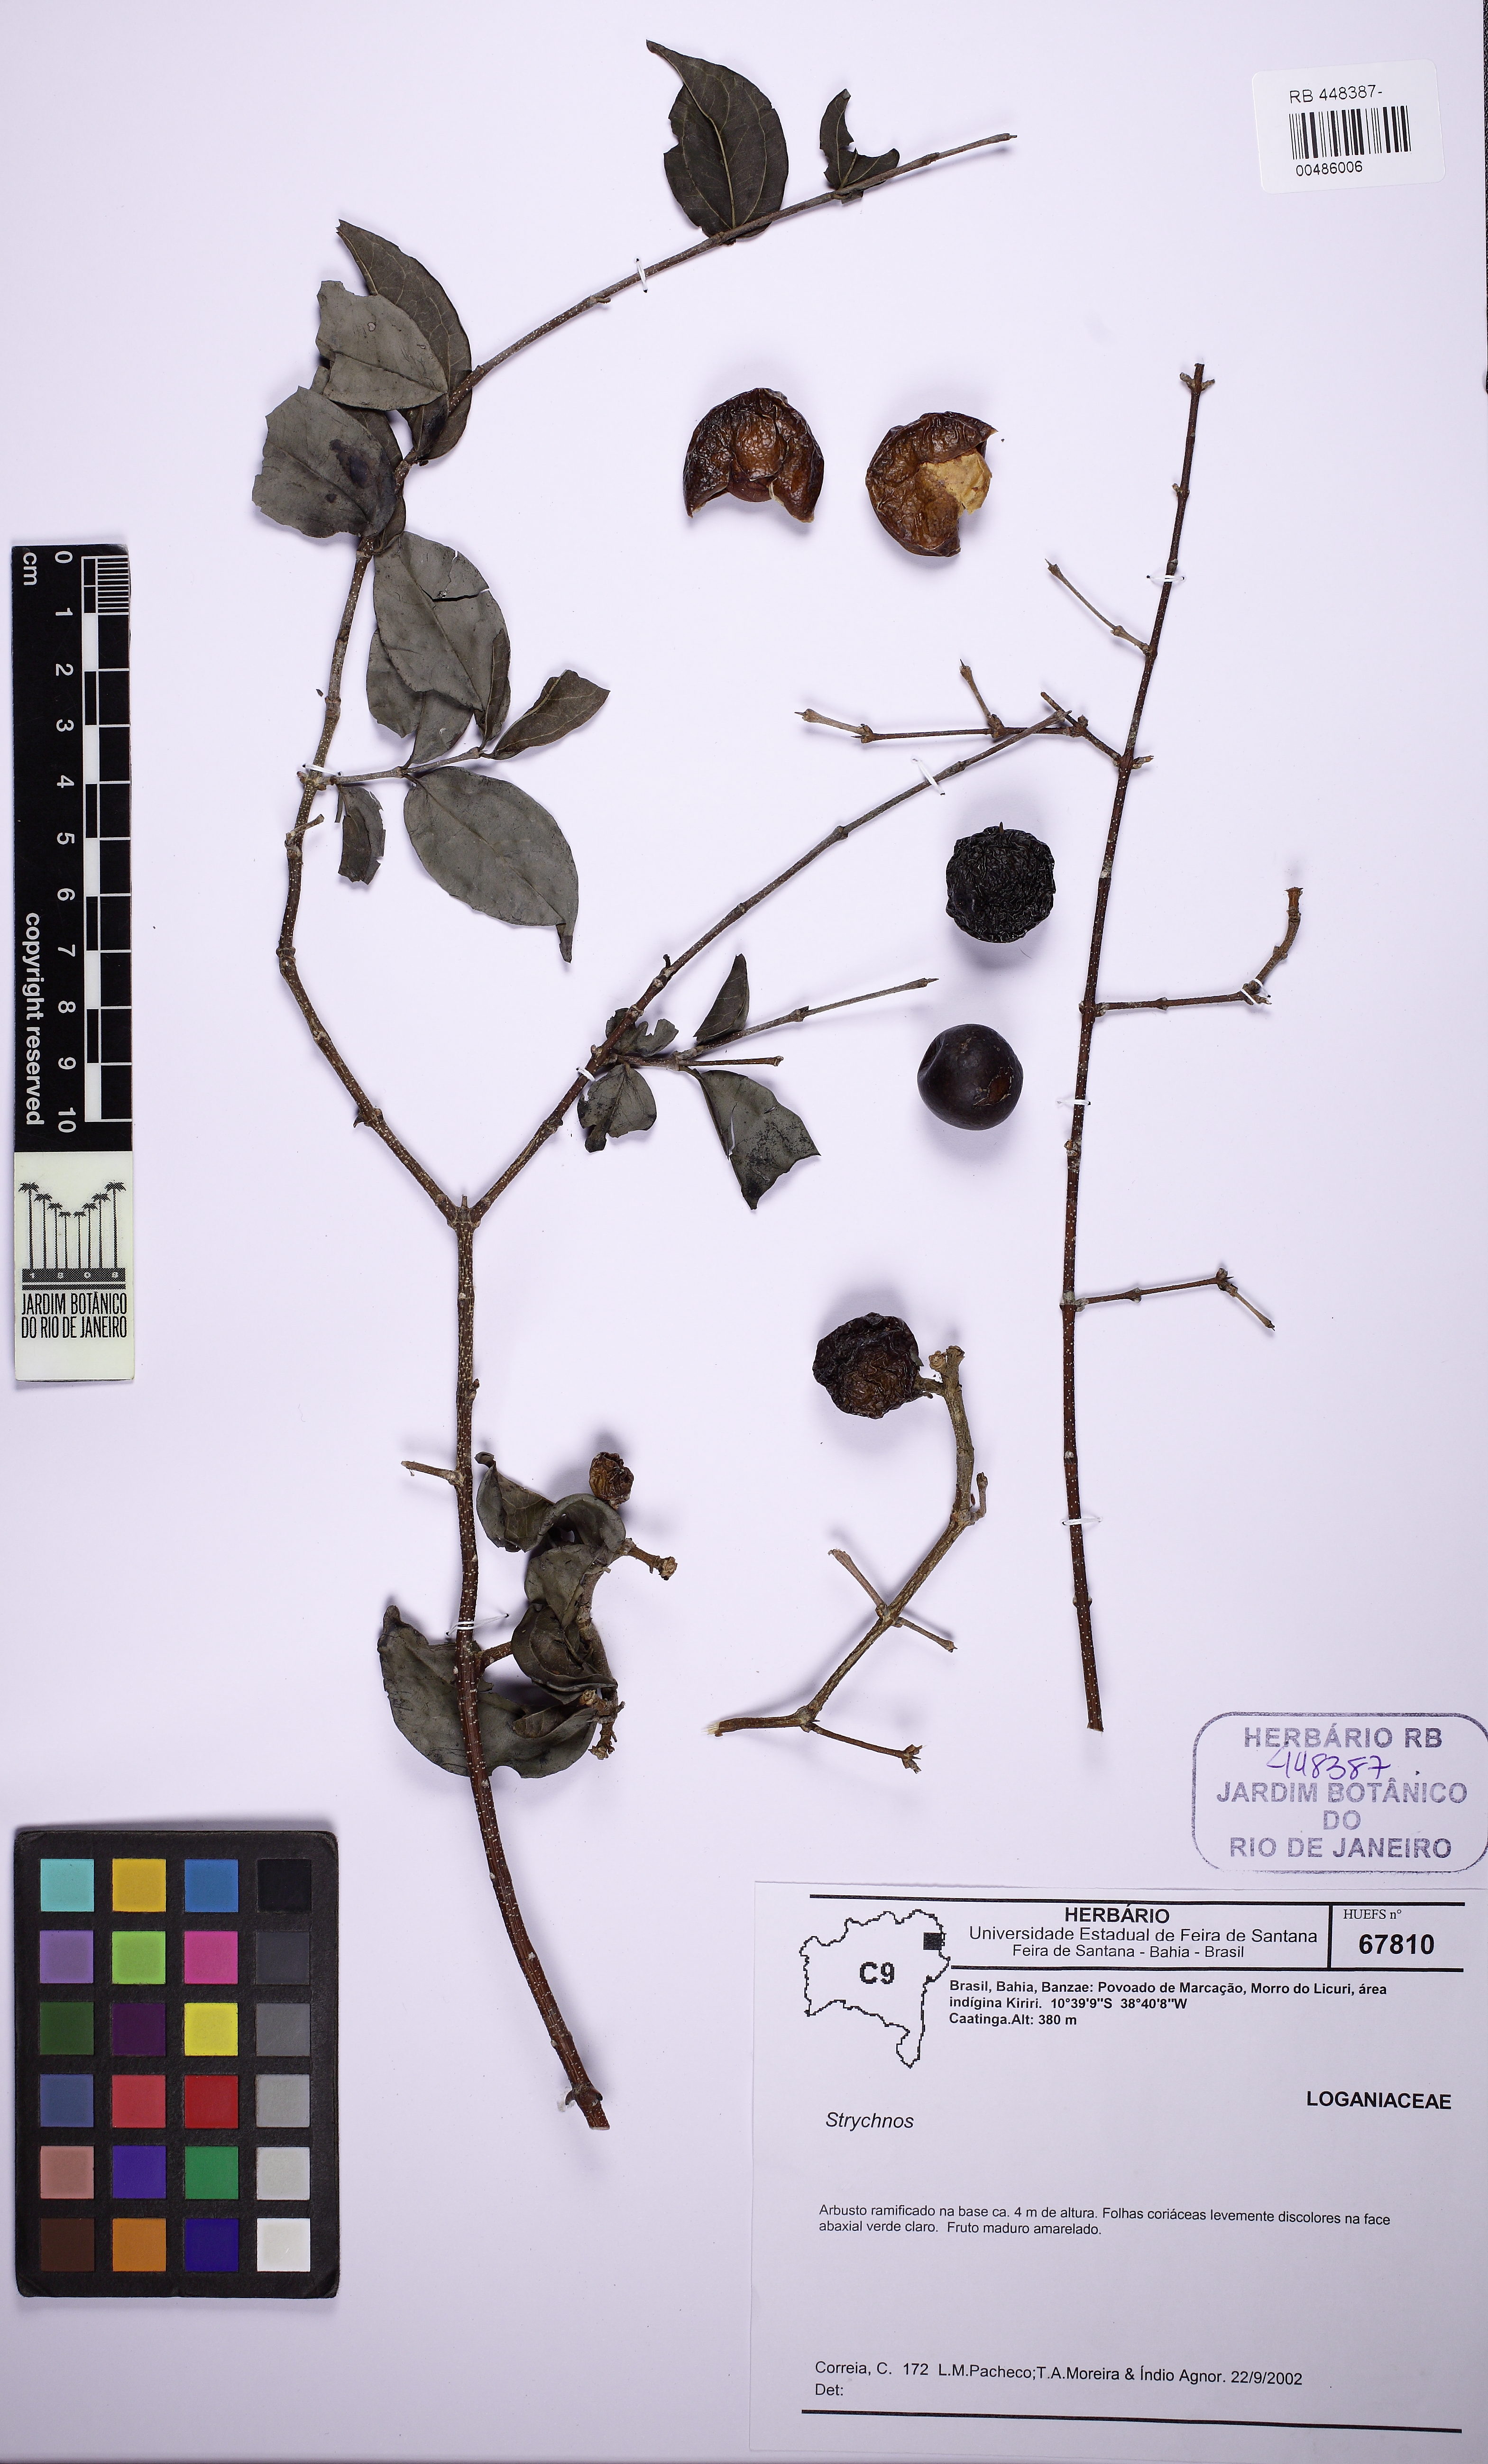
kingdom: Plantae
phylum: Tracheophyta
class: Magnoliopsida
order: Gentianales
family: Loganiaceae
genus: Strychnos
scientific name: Strychnos mattogrossensis
